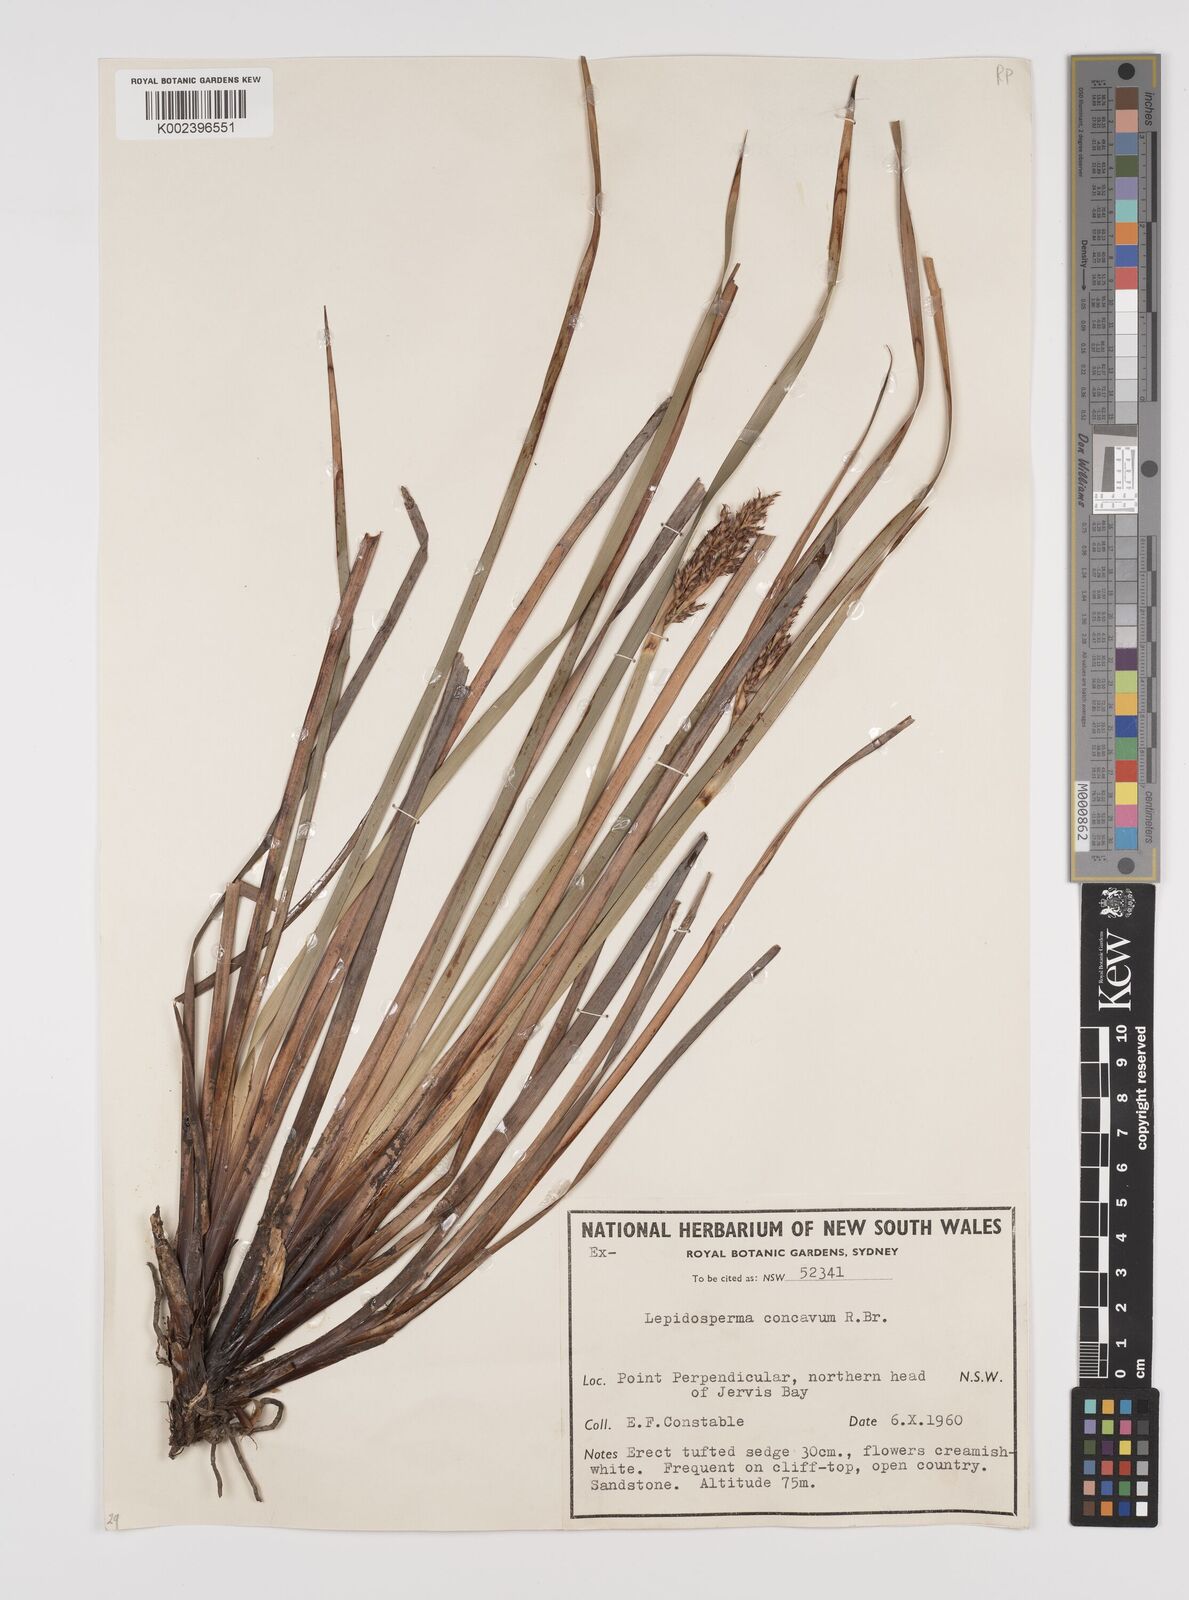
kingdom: Plantae
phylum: Tracheophyta
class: Liliopsida
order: Poales
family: Cyperaceae
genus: Lepidosperma
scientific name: Lepidosperma concavum
